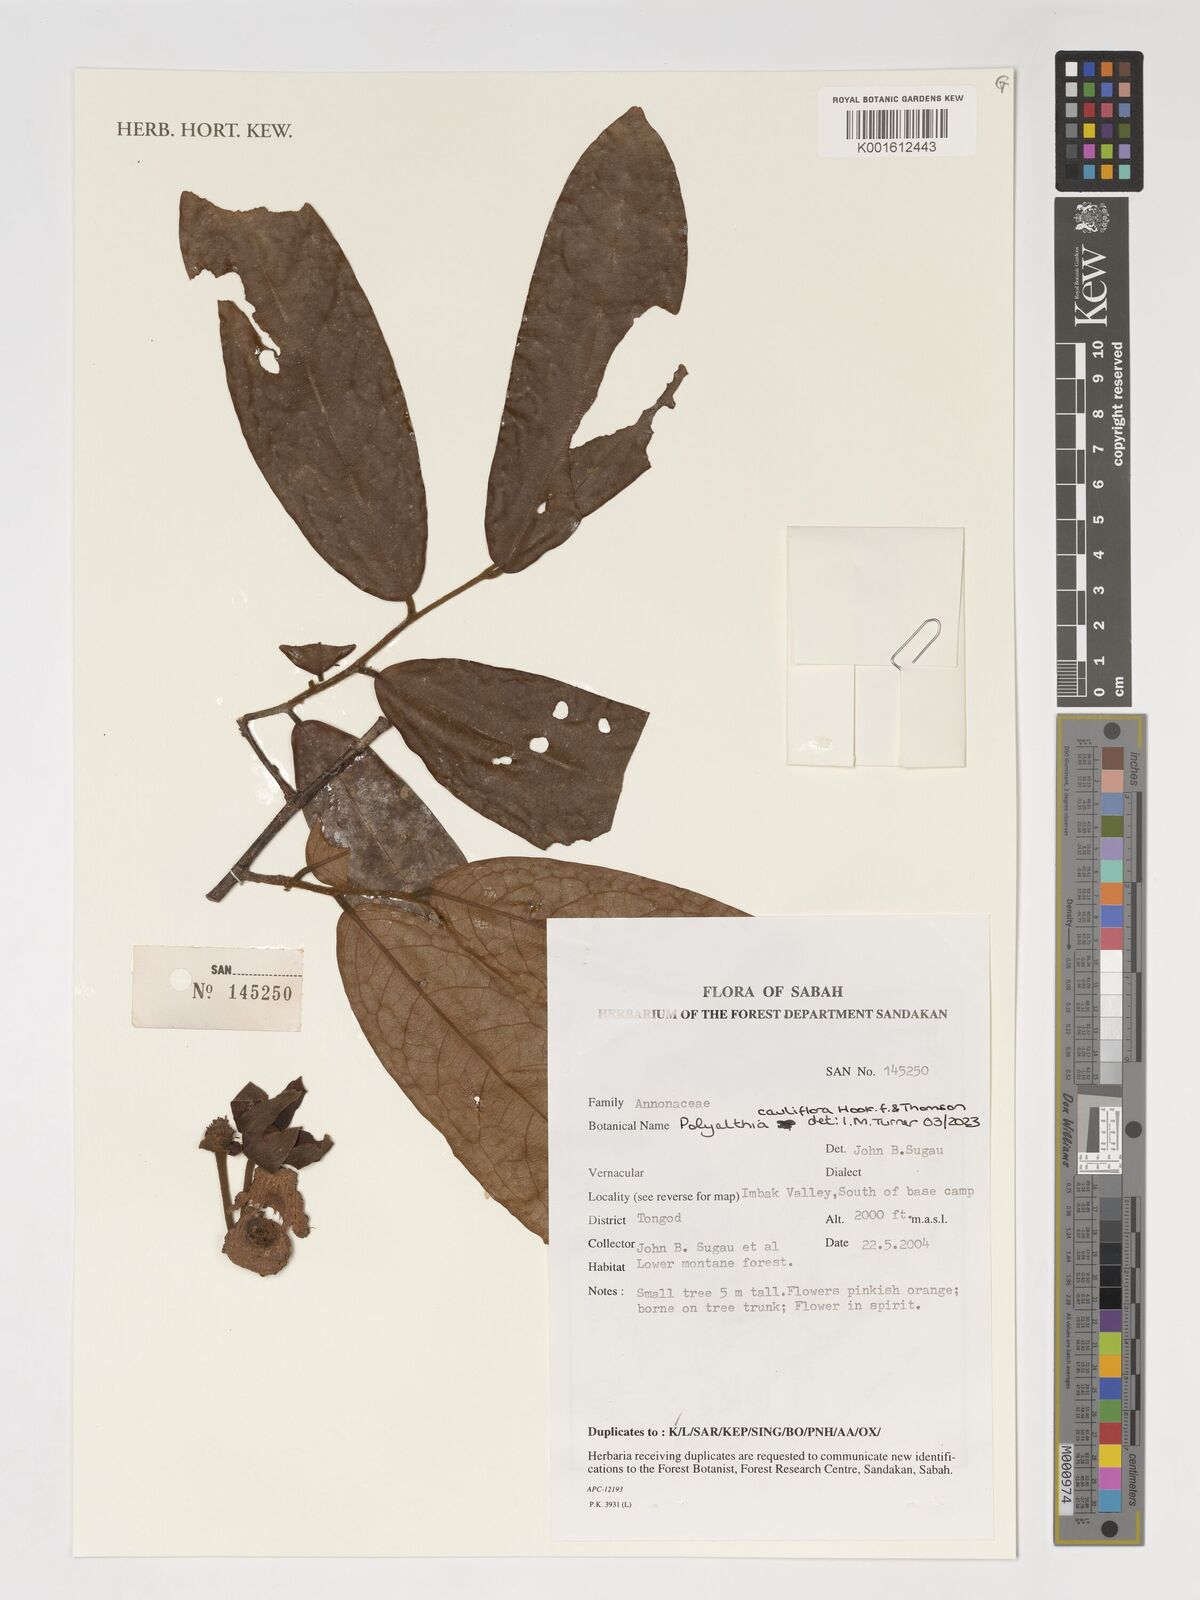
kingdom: Plantae
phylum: Tracheophyta
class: Magnoliopsida
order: Magnoliales
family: Annonaceae
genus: Polyalthia
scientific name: Polyalthia cauliflora
